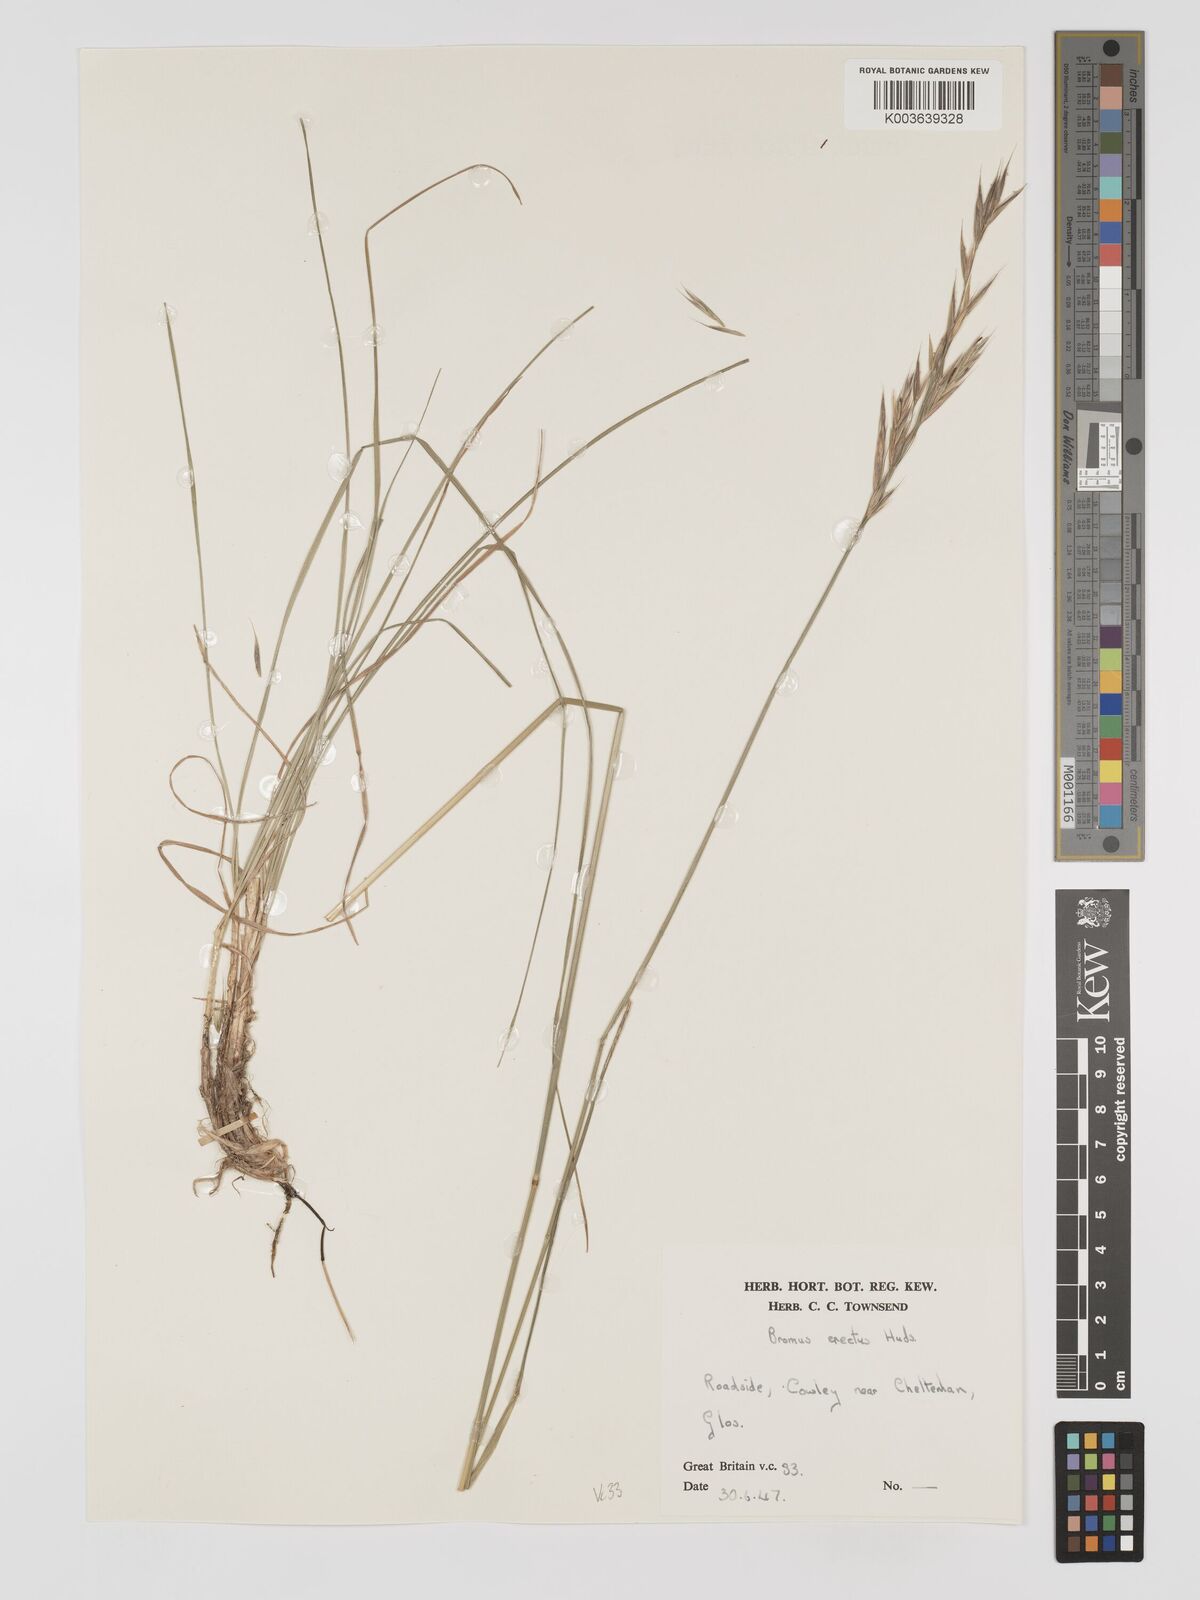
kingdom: Plantae
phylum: Tracheophyta
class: Liliopsida
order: Poales
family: Poaceae
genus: Bromus
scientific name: Bromus erectus
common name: Erect brome
